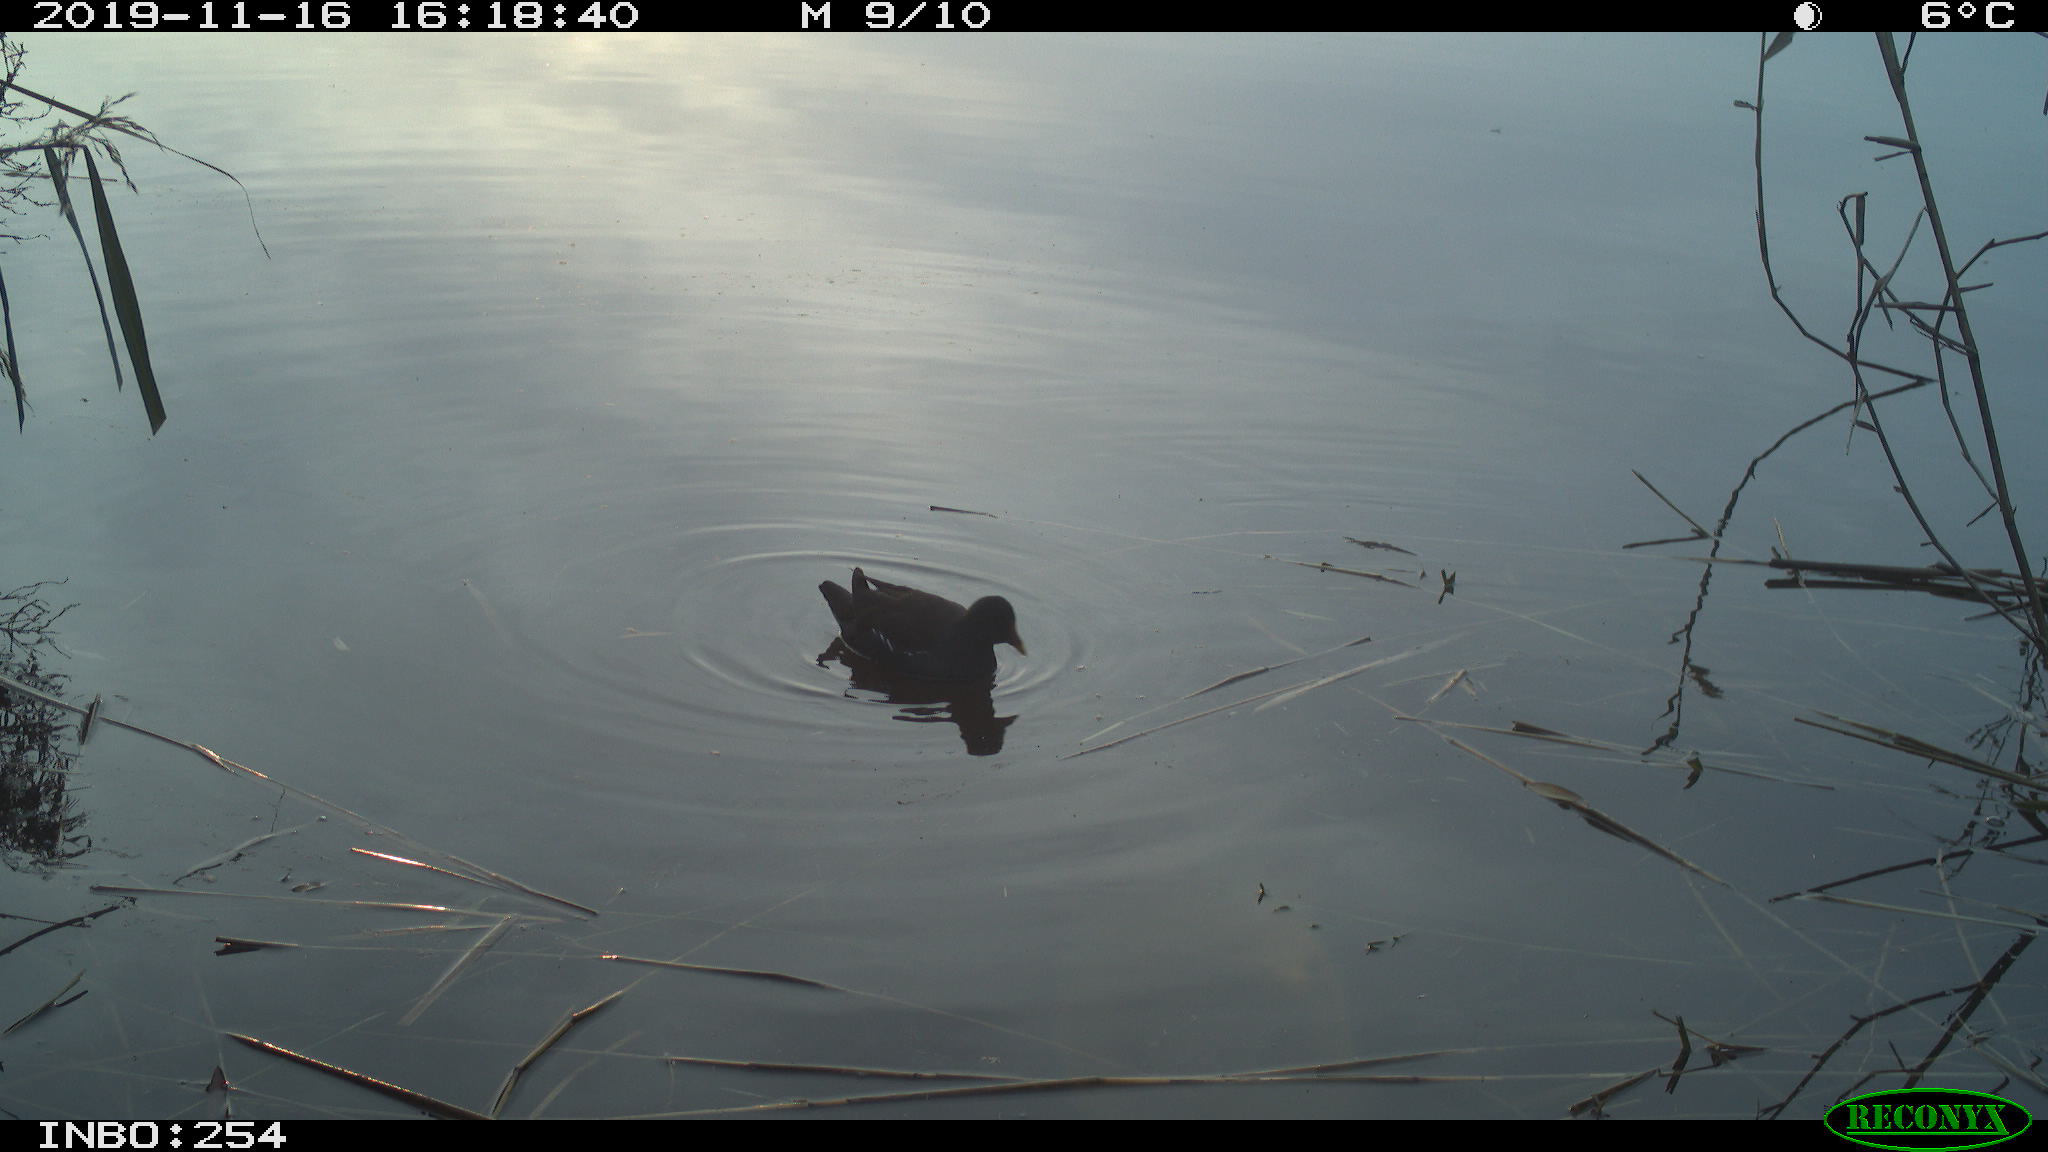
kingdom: Animalia
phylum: Chordata
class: Aves
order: Gruiformes
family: Rallidae
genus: Gallinula
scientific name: Gallinula chloropus
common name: Common moorhen
